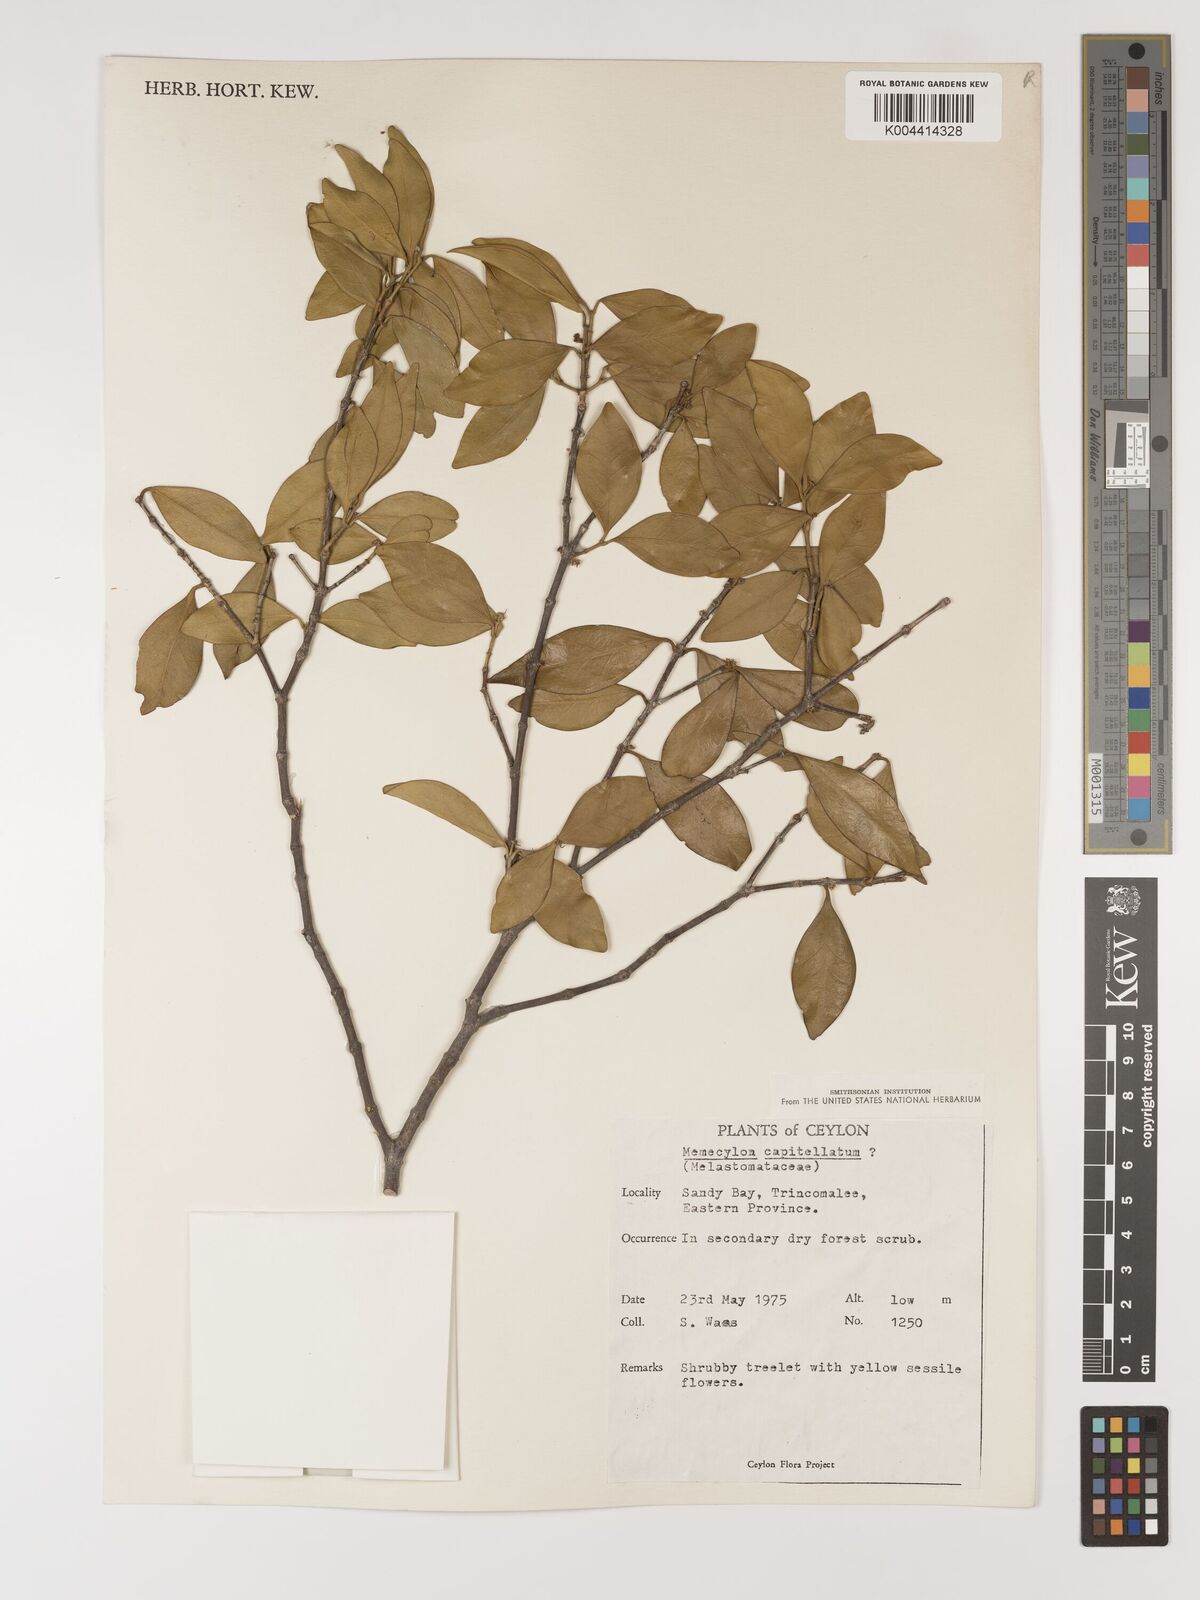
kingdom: Plantae
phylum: Tracheophyta
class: Magnoliopsida
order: Myrtales
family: Melastomataceae
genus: Memecylon
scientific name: Memecylon capitellatum
